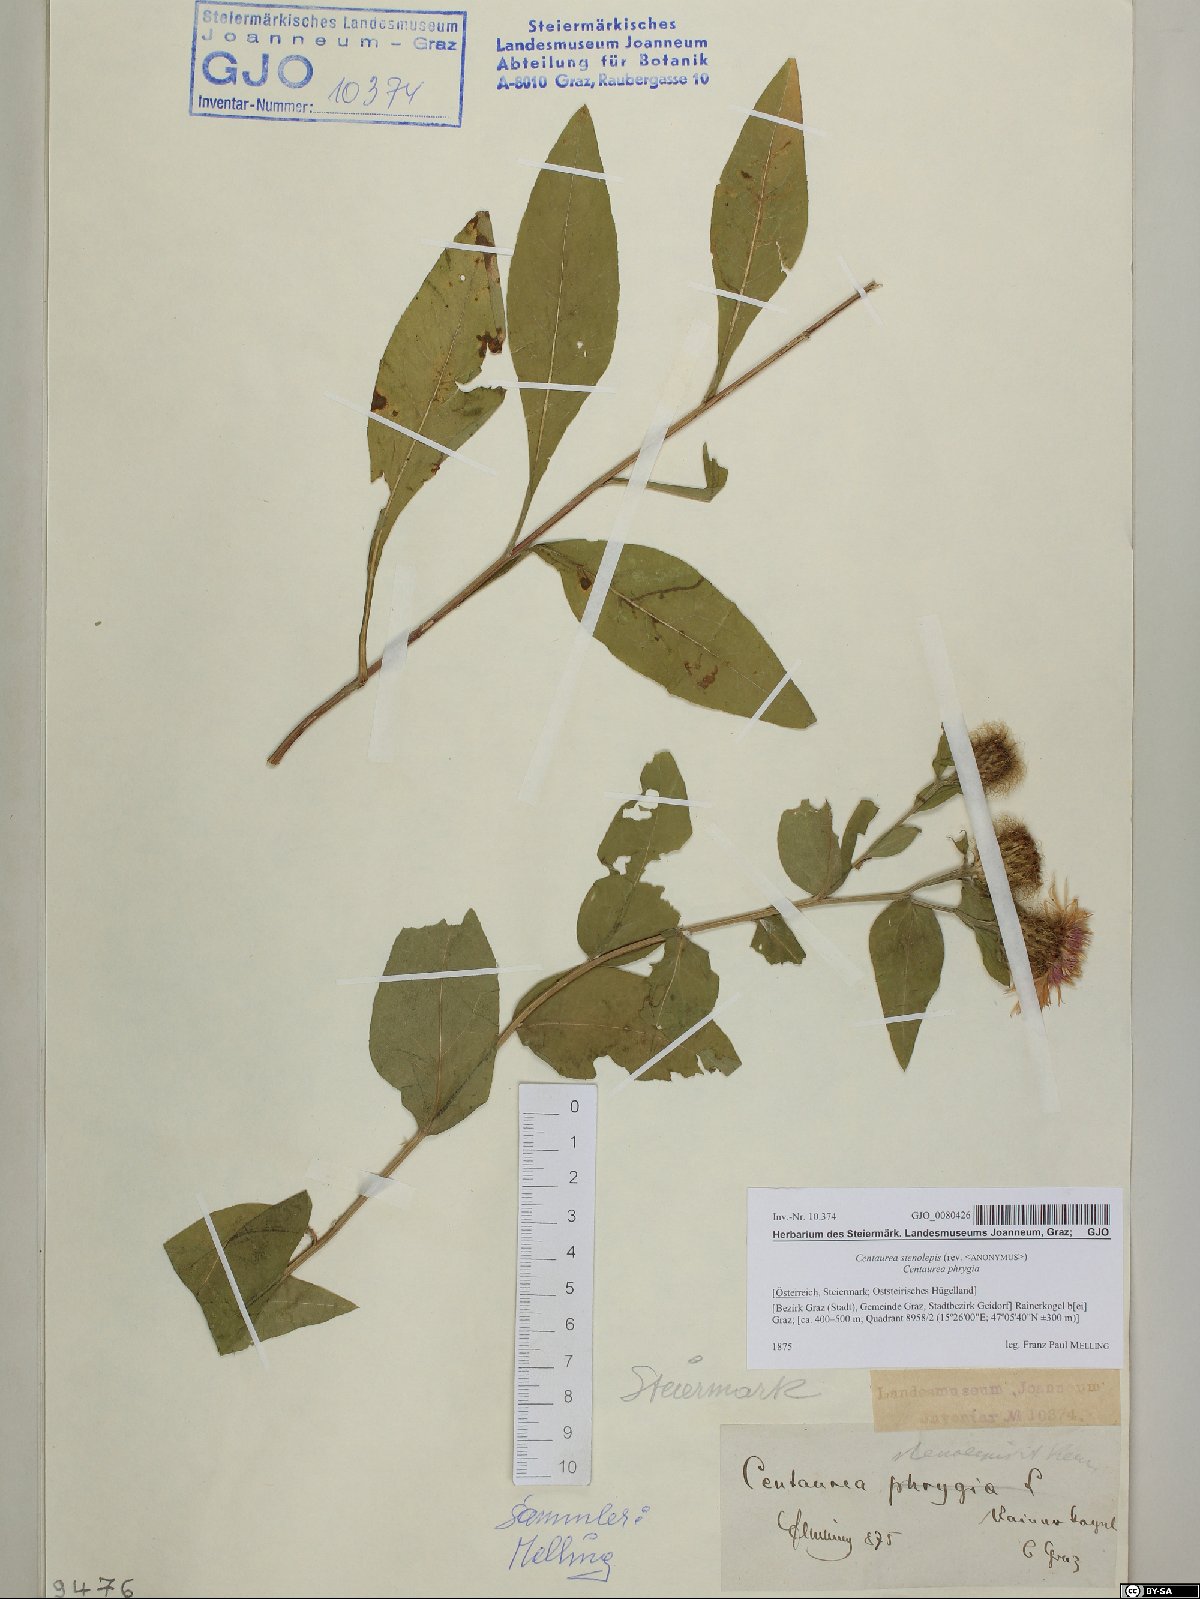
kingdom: Plantae
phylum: Tracheophyta
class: Magnoliopsida
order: Asterales
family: Asteraceae
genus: Centaurea
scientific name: Centaurea stenolepis
